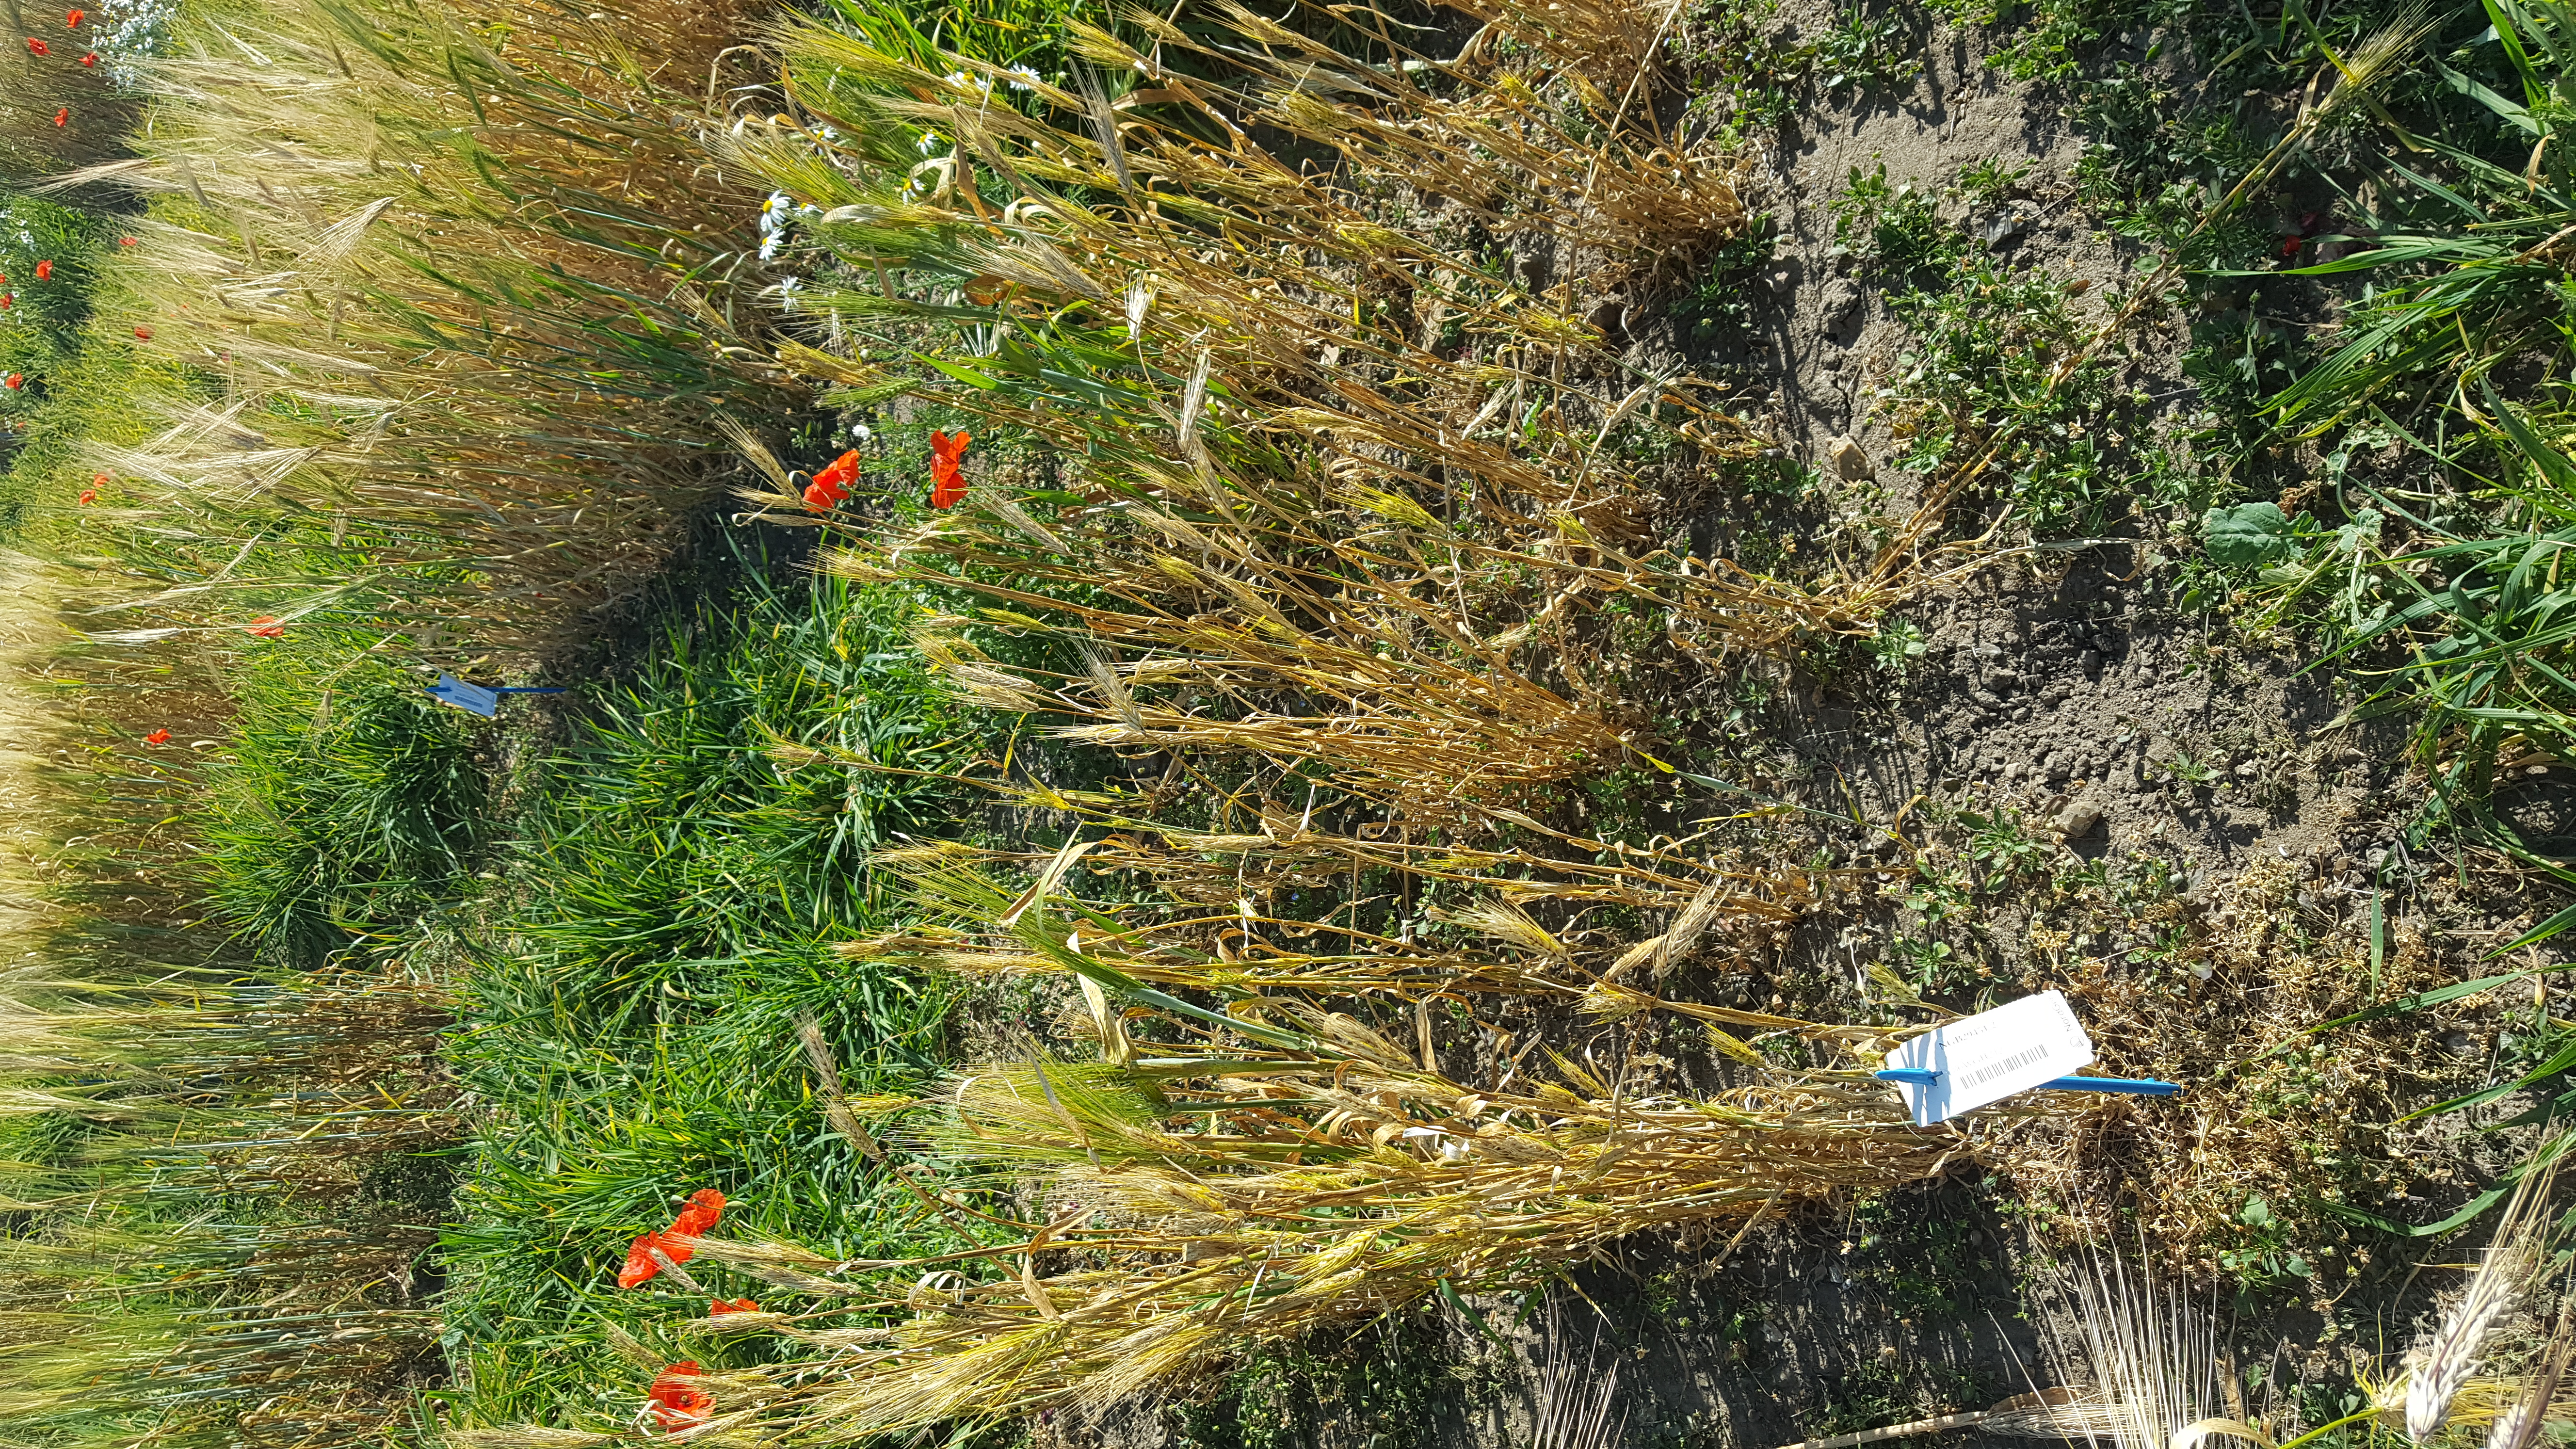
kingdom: Plantae
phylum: Tracheophyta
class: Liliopsida
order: Poales
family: Poaceae
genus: Hordeum
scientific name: Hordeum vulgare
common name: Common barley
